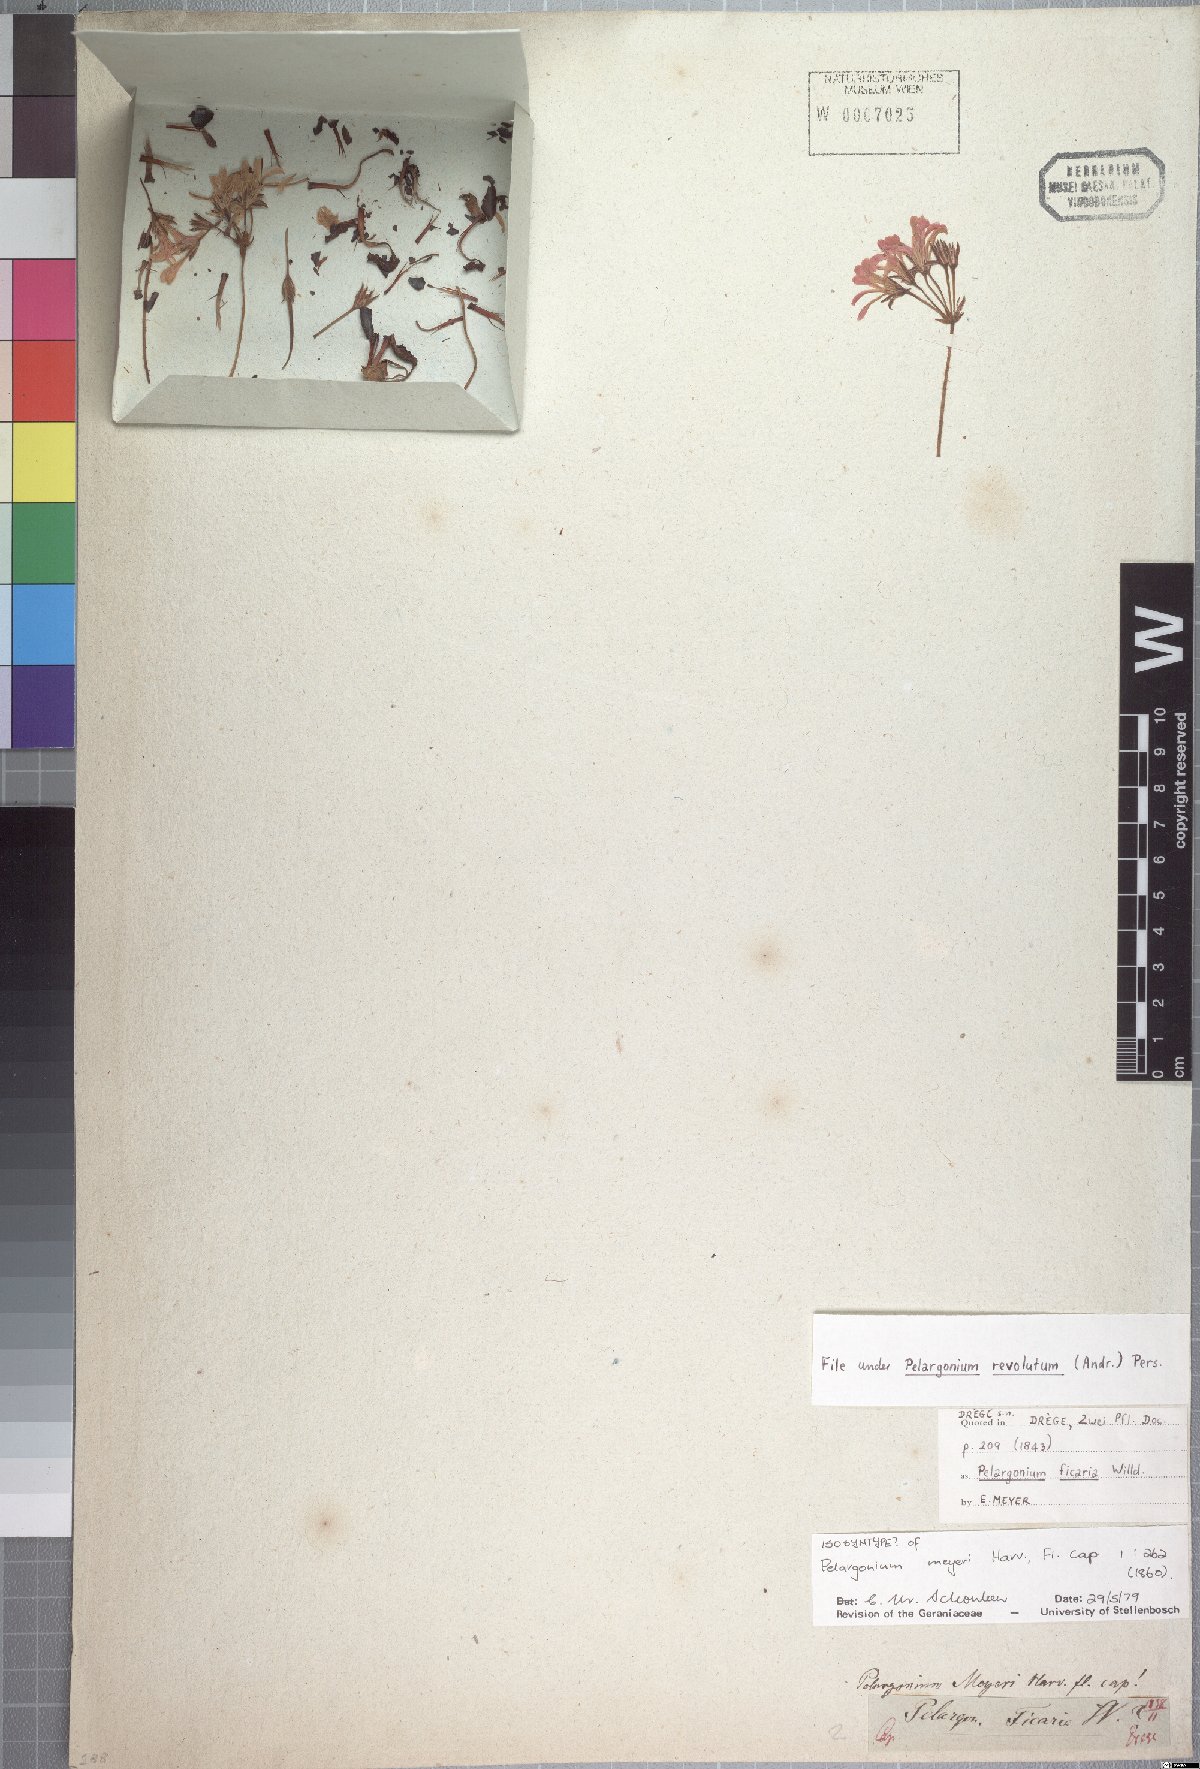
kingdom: Plantae
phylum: Tracheophyta
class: Magnoliopsida
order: Geraniales
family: Geraniaceae
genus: Pelargonium
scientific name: Pelargonium chelidonium
